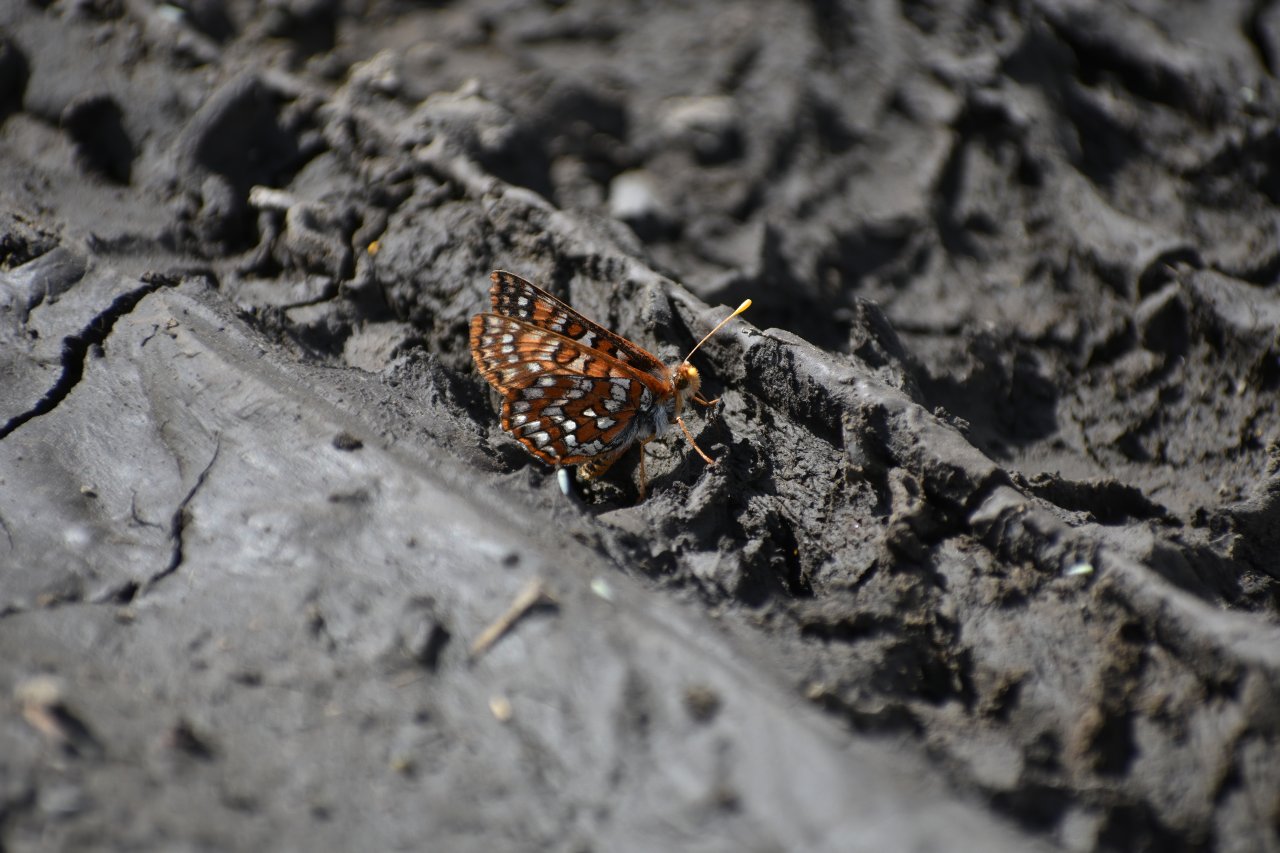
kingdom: Animalia
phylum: Arthropoda
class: Insecta
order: Lepidoptera
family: Nymphalidae
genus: Occidryas
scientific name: Occidryas anicia
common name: Anicia Checkerspot
